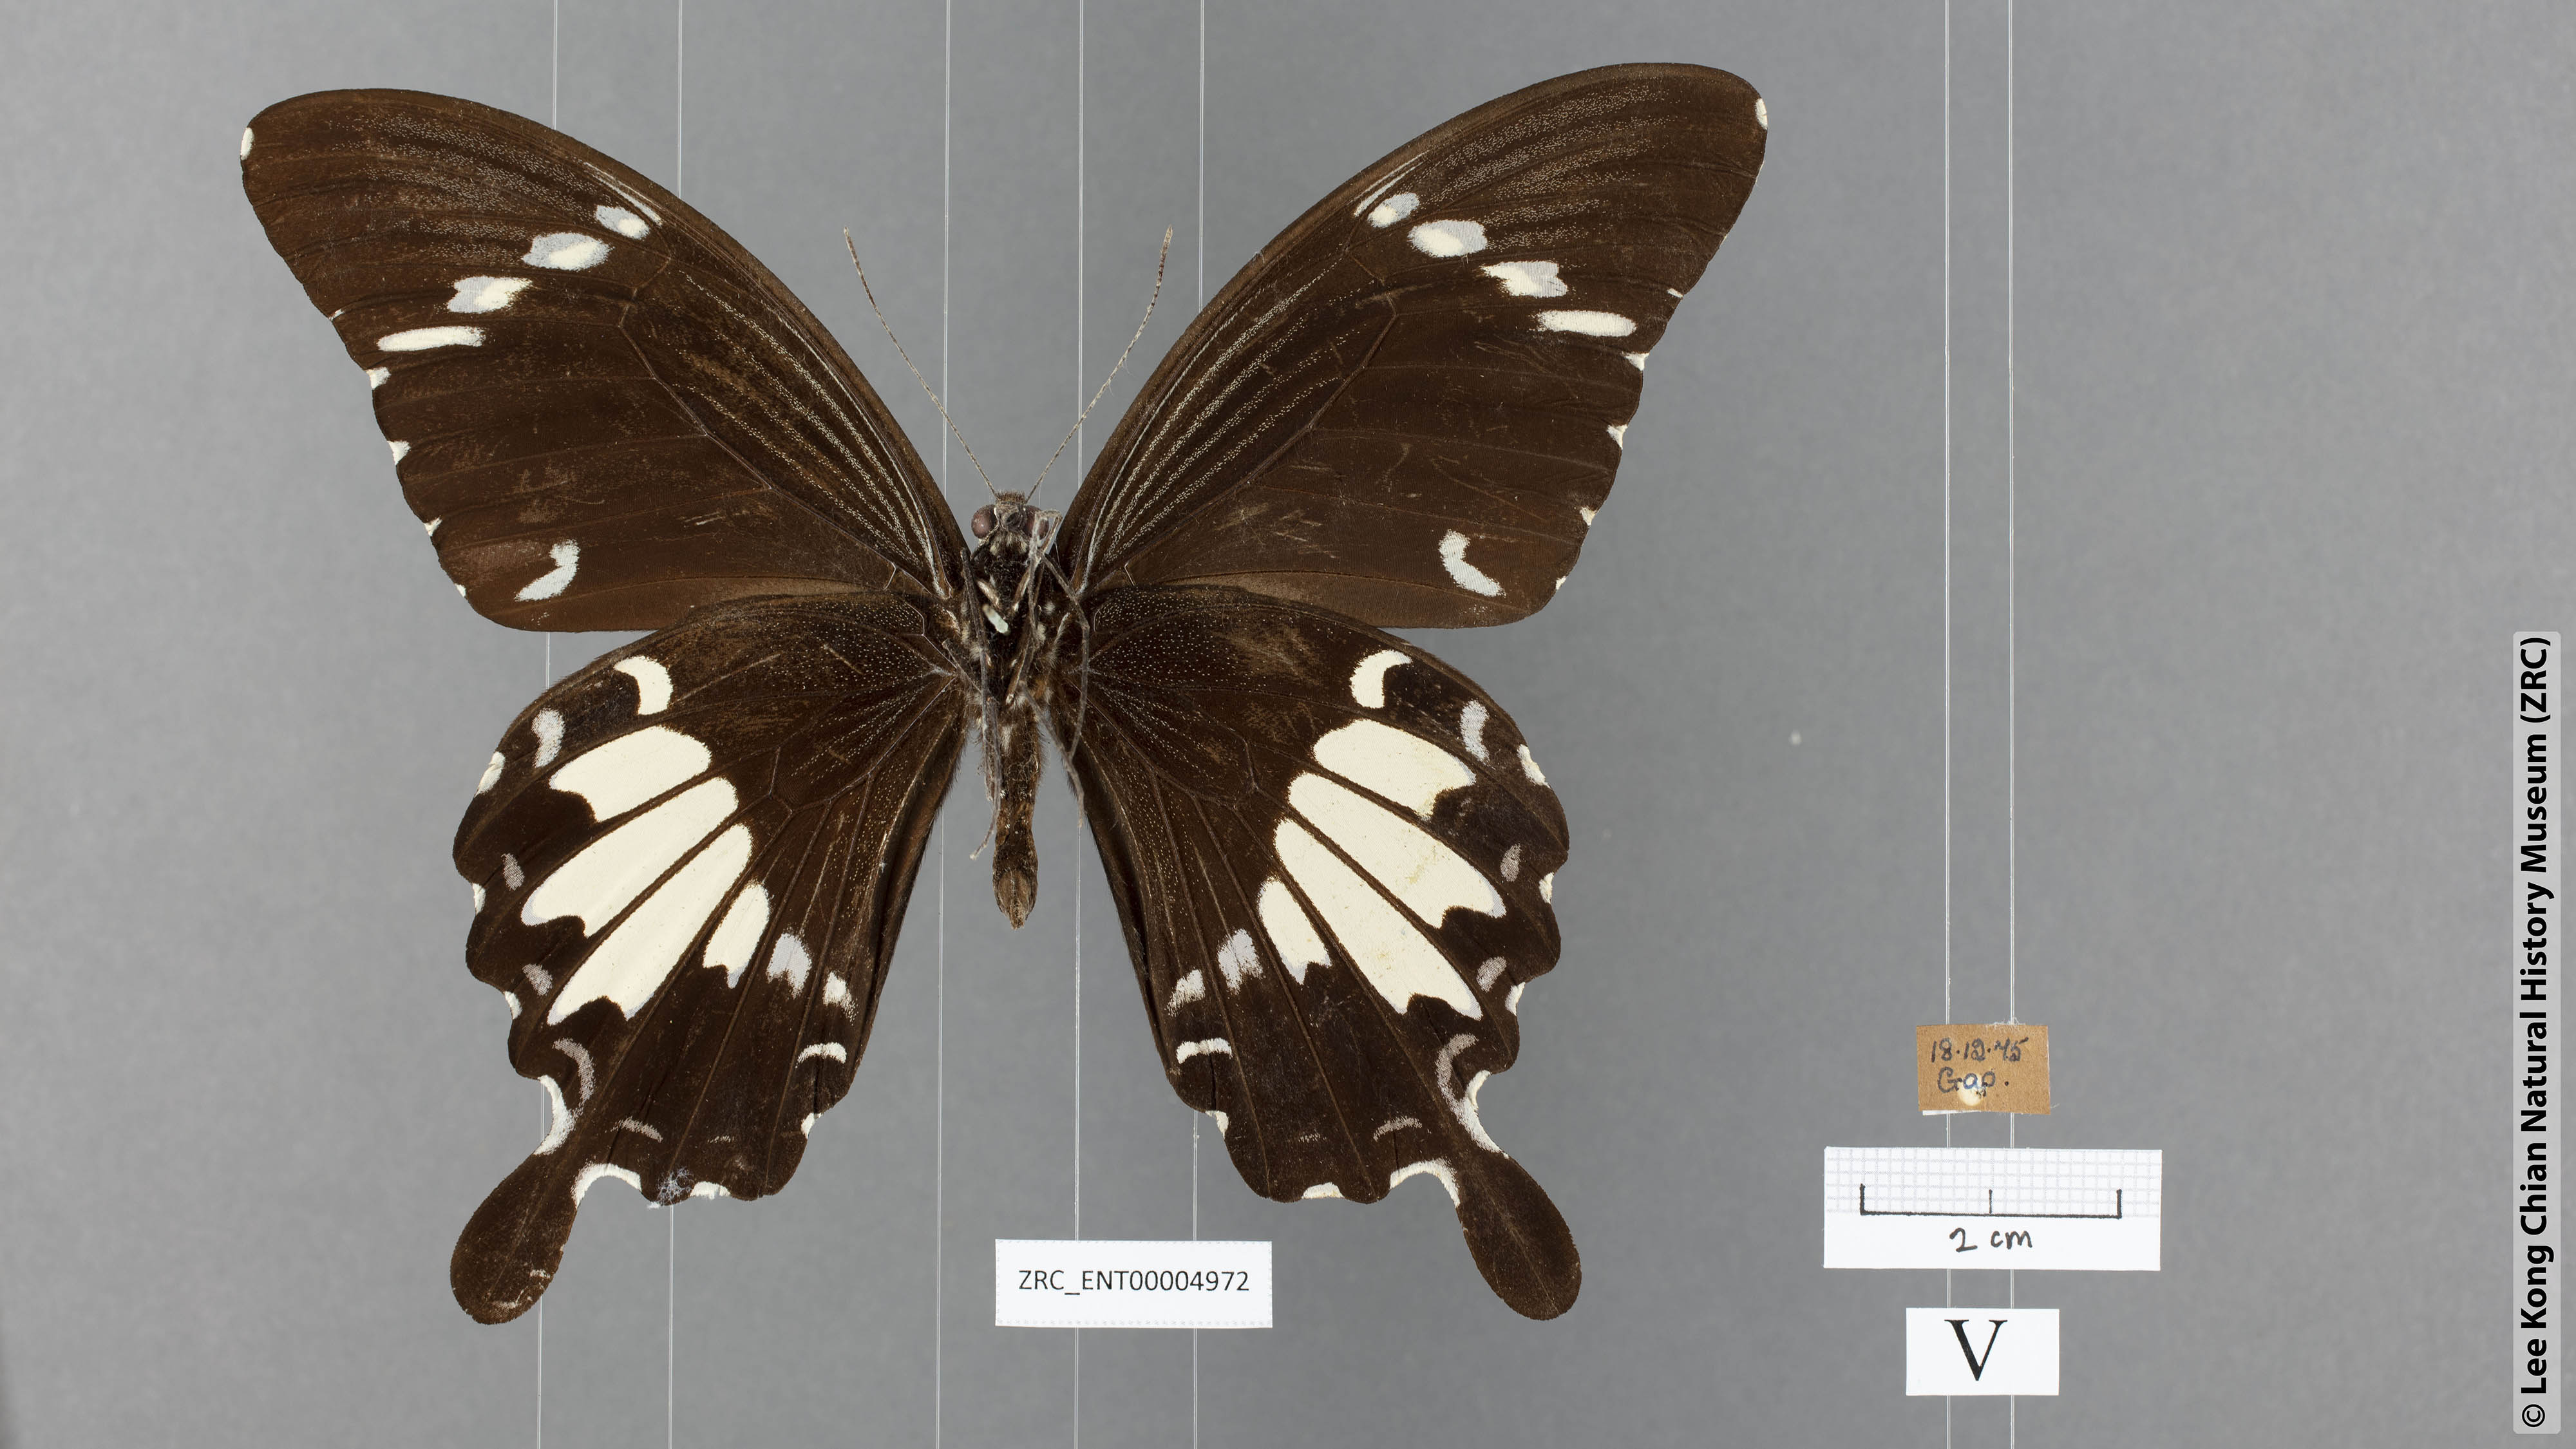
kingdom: Animalia
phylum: Arthropoda
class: Insecta
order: Lepidoptera
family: Papilionidae
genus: Papilio
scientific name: Papilio nephelus
